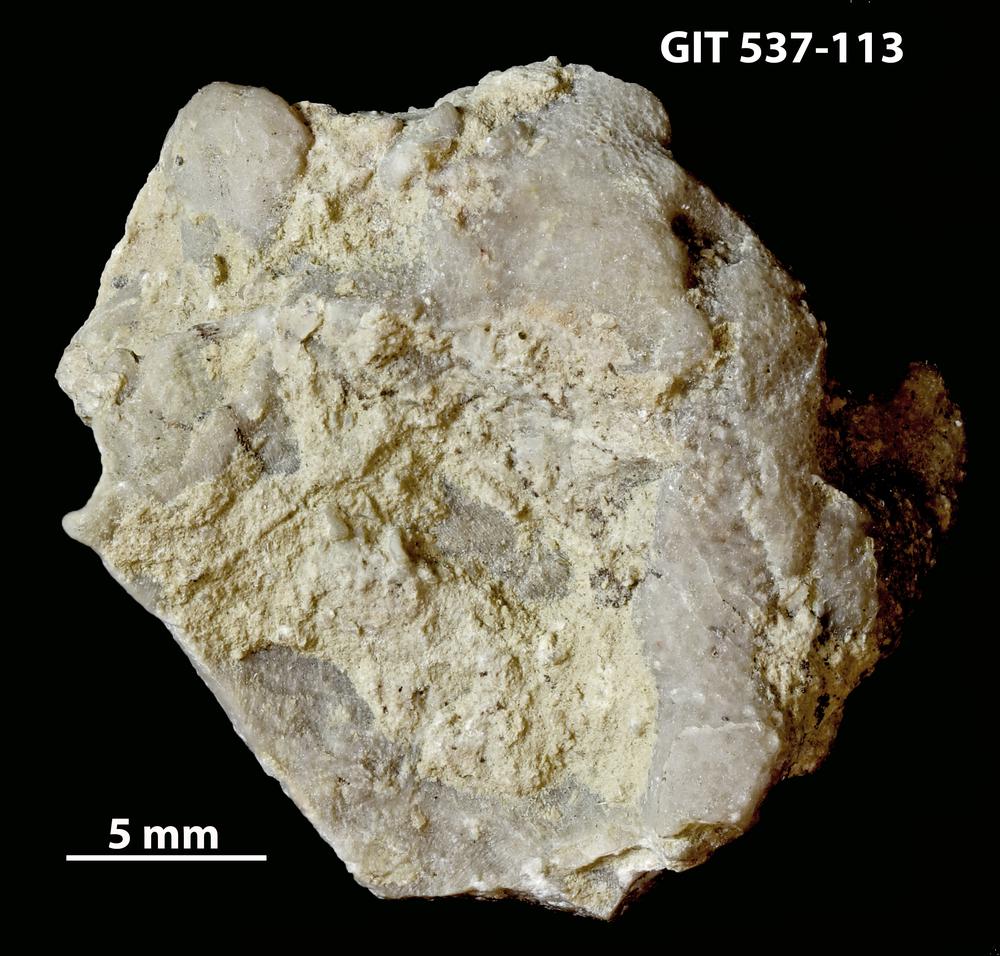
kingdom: Animalia
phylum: Bryozoa
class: Stenolaemata
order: Cystoporida
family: Ceramoporidae
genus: Ceramopora
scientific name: Ceramopora spongiosa
